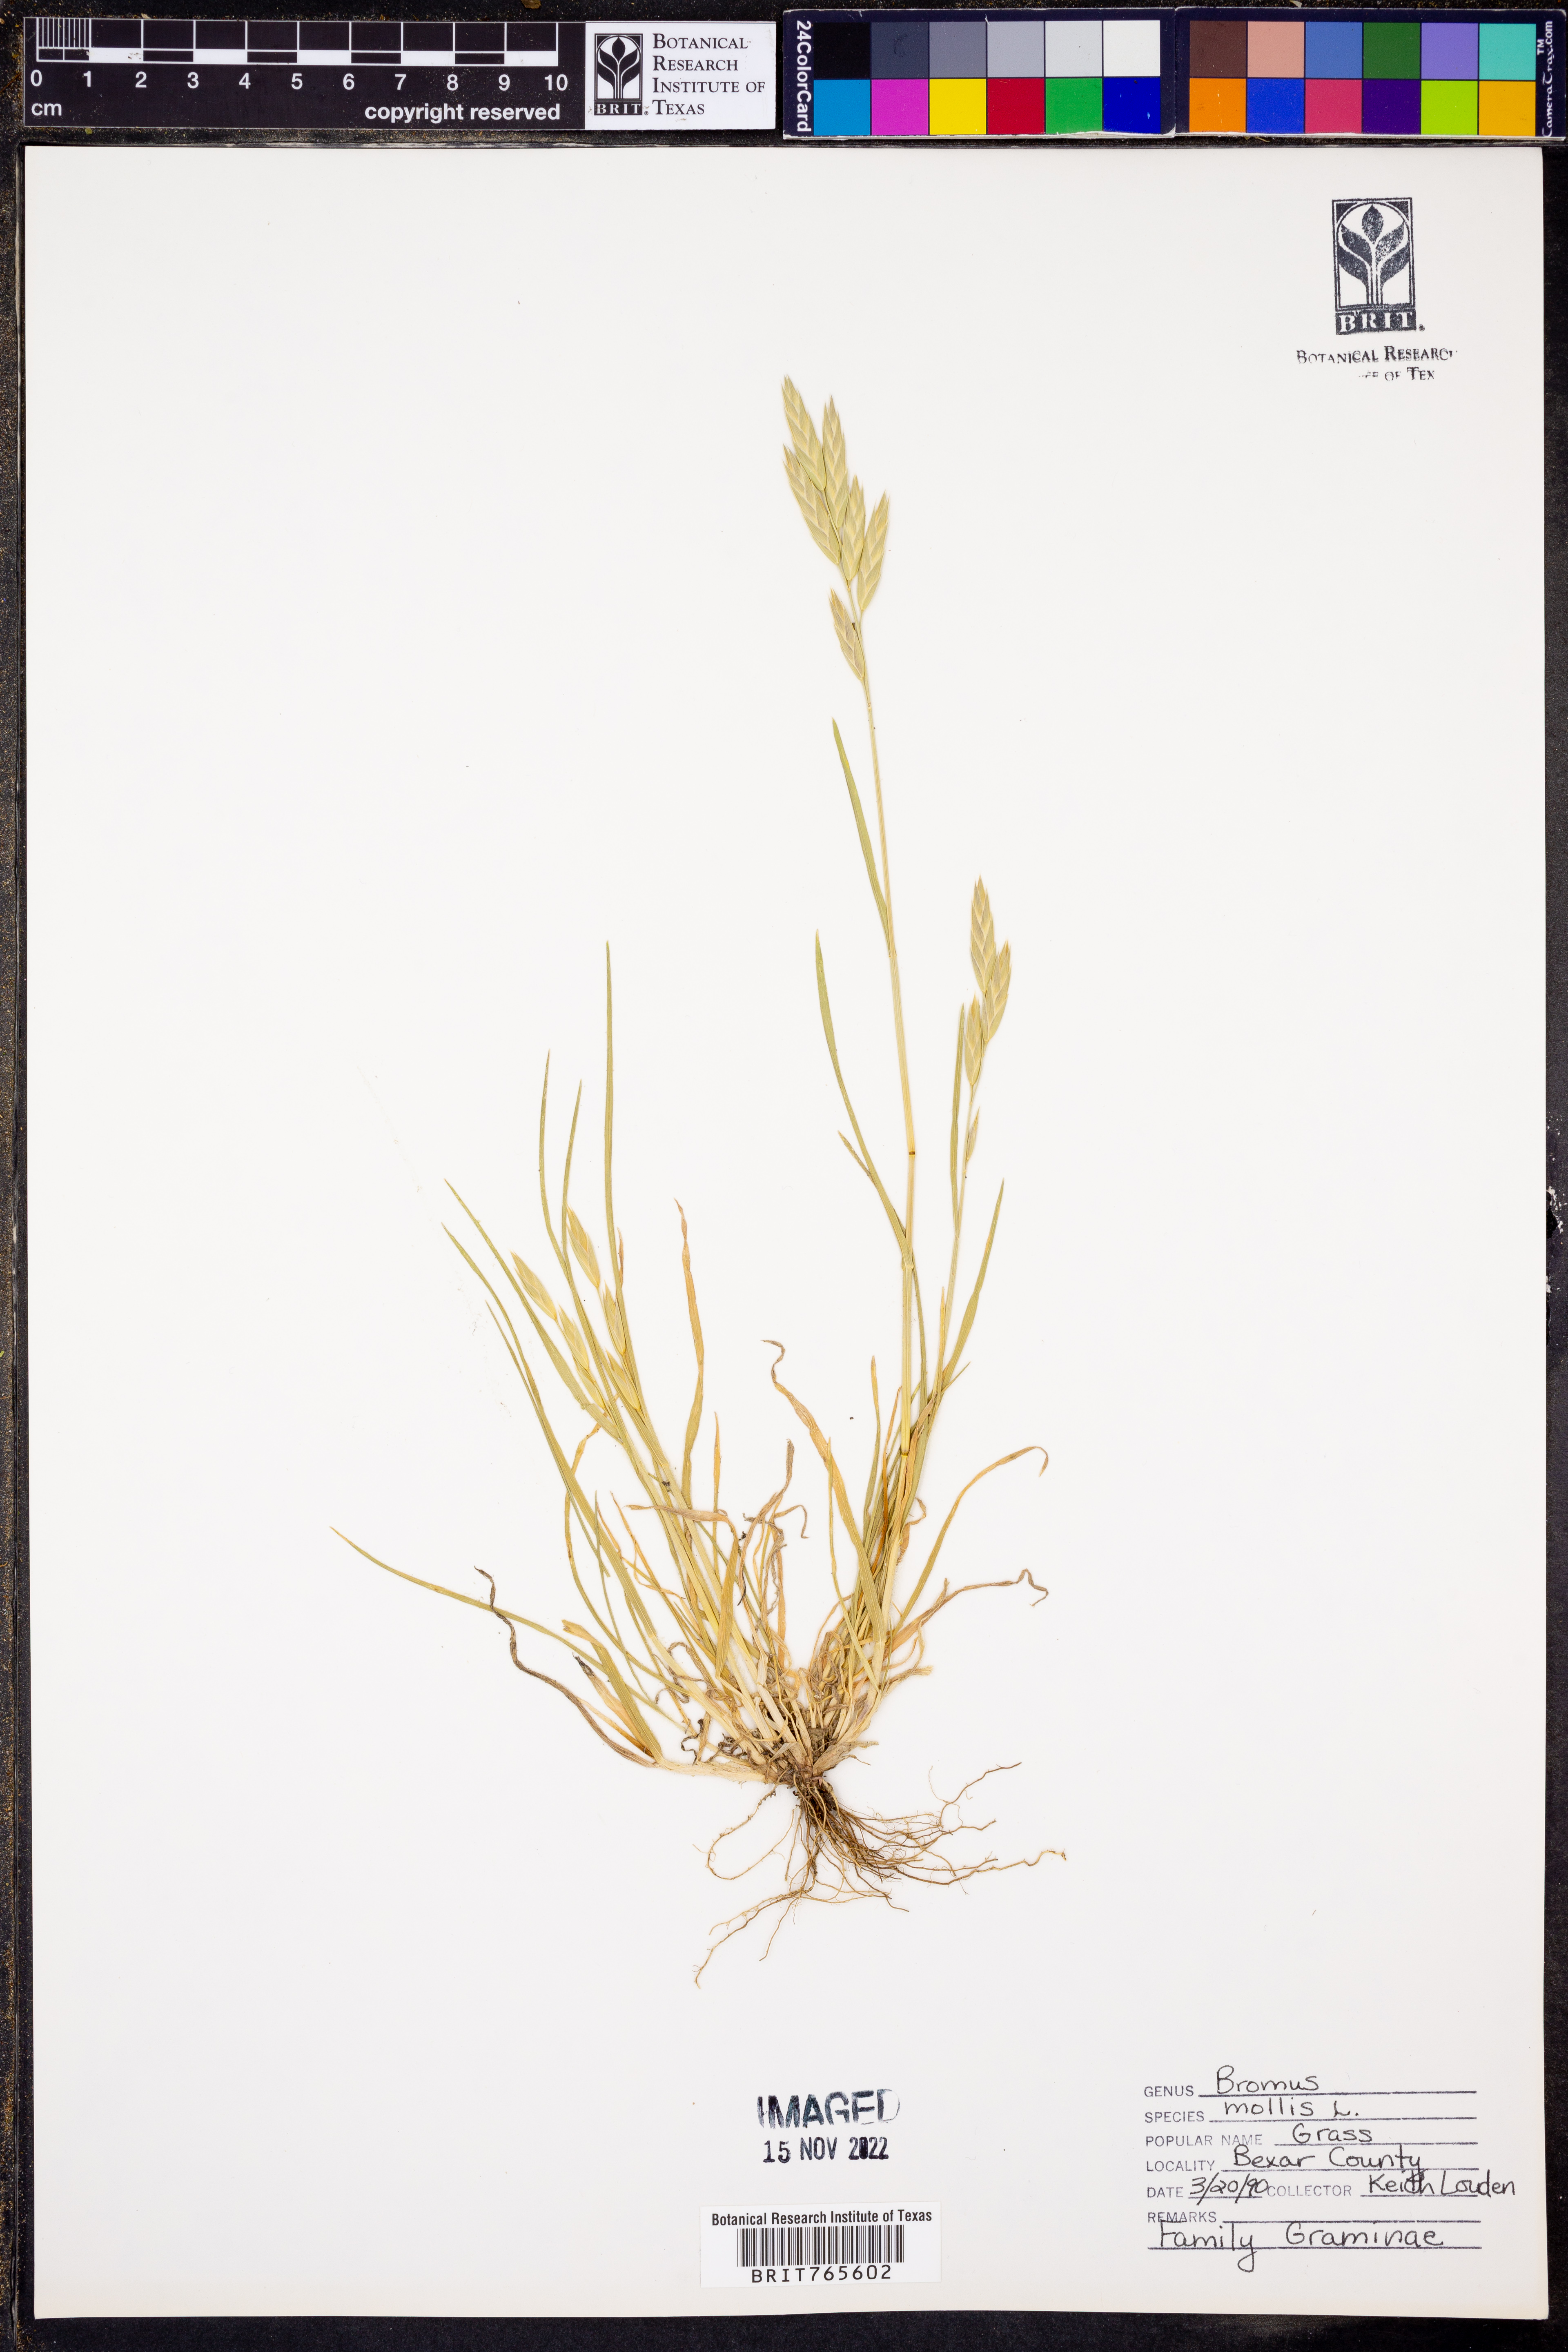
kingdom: Plantae
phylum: Tracheophyta
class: Liliopsida
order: Poales
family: Poaceae
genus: Bromus
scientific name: Bromus
